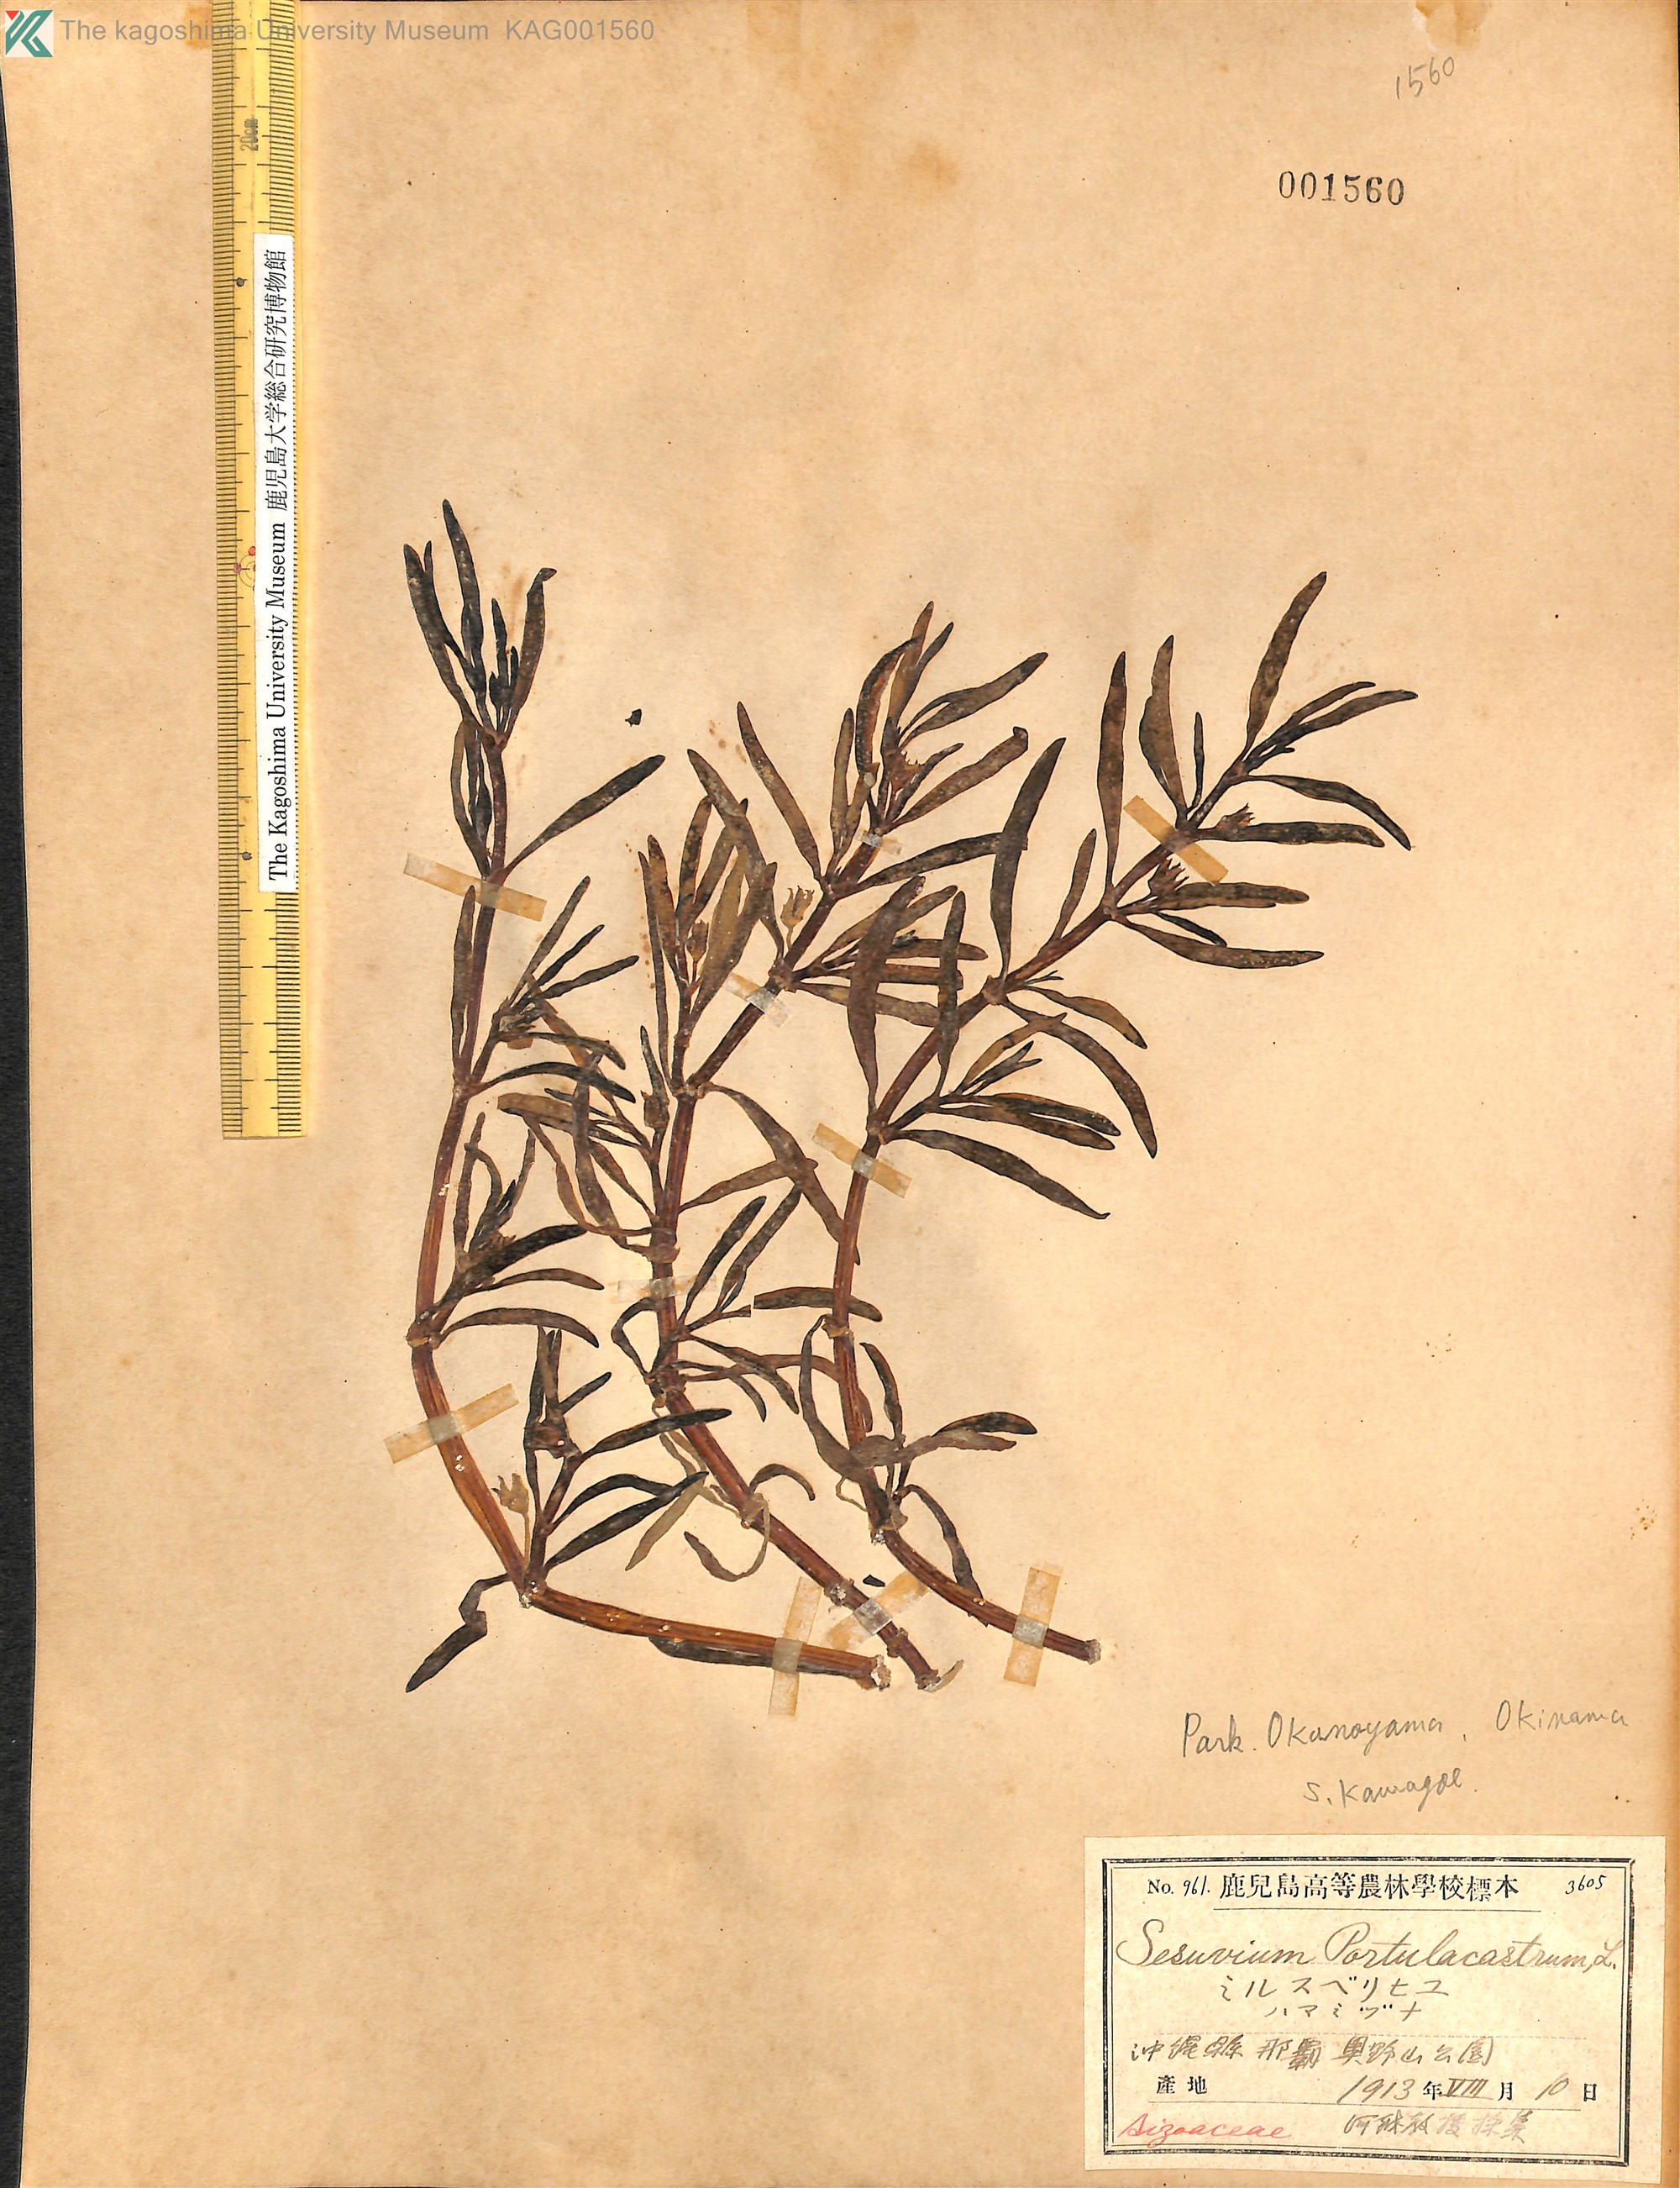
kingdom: Plantae
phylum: Tracheophyta
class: Magnoliopsida
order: Caryophyllales
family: Aizoaceae
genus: Sesuvium
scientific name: Sesuvium portulacastrum
